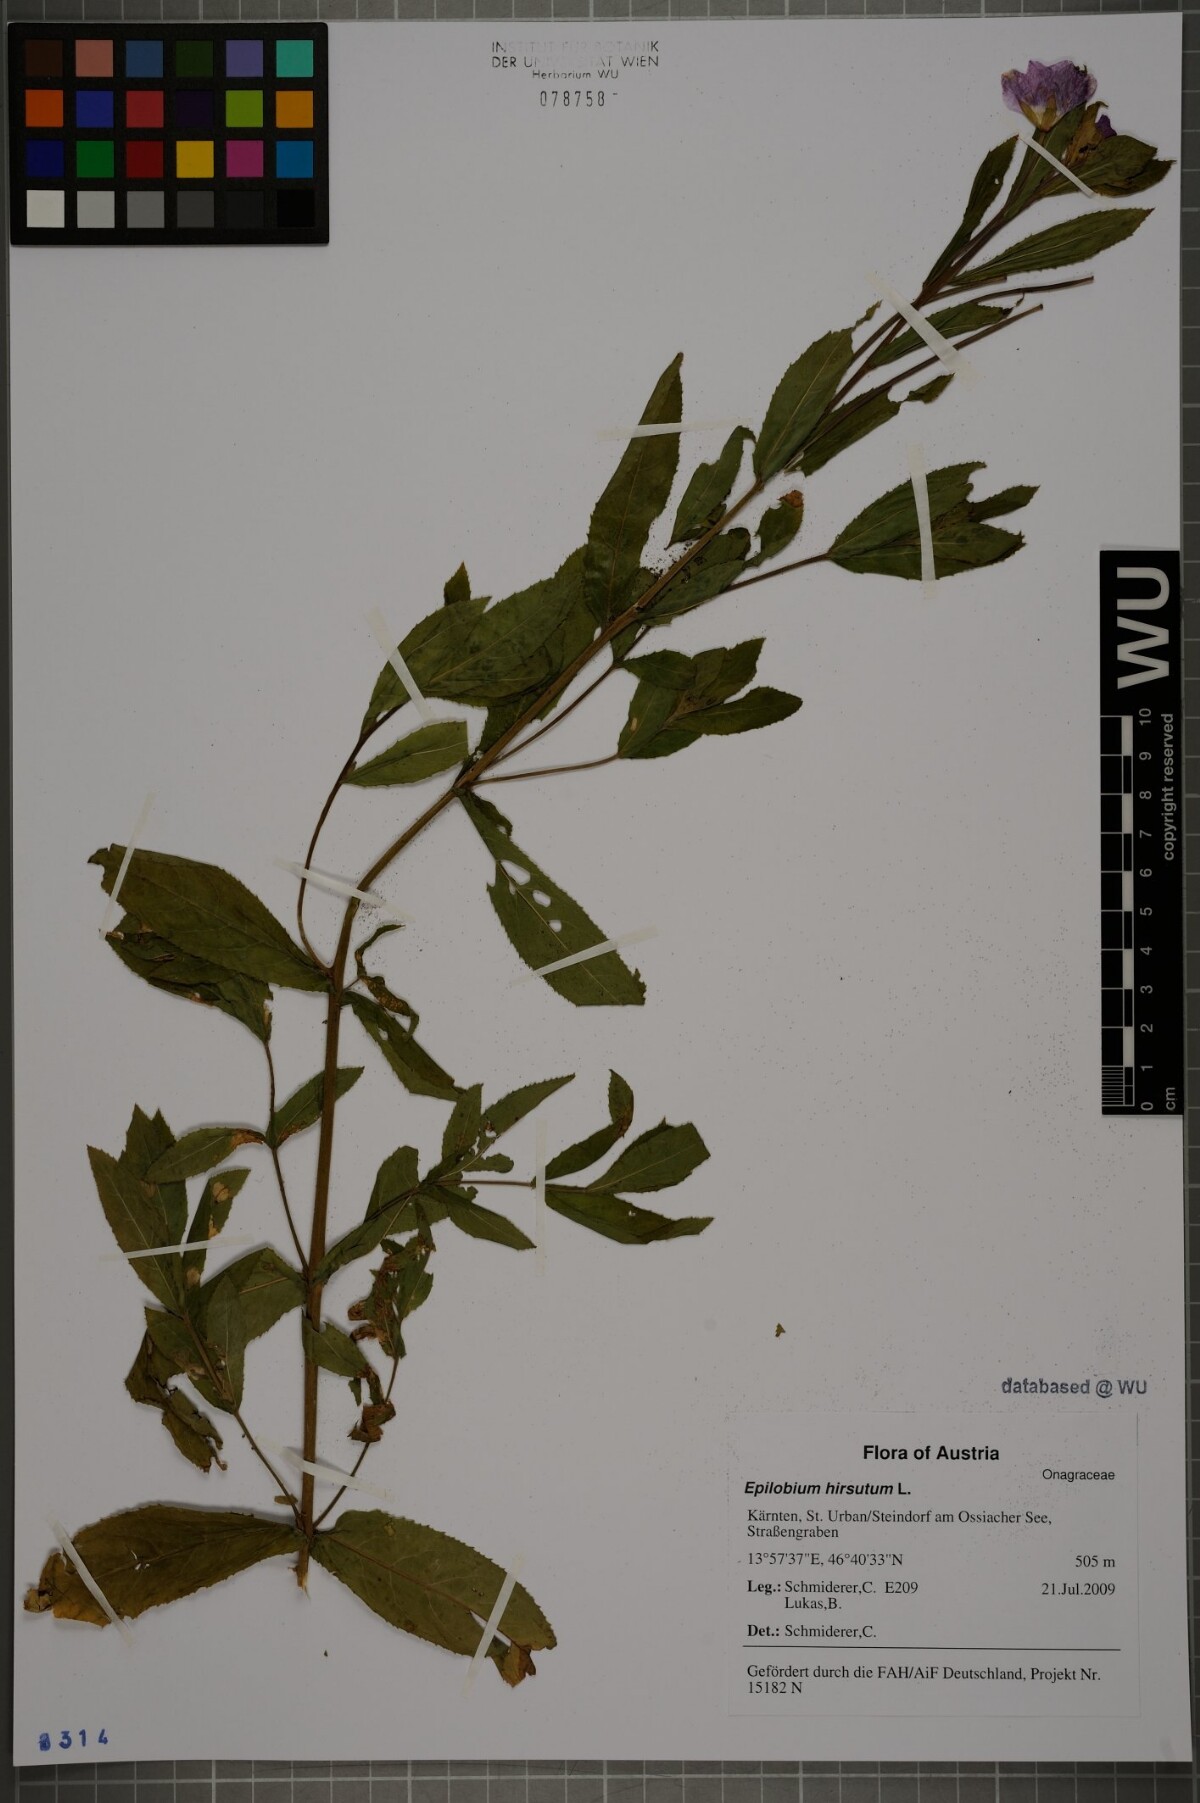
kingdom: Plantae
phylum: Tracheophyta
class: Magnoliopsida
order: Myrtales
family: Onagraceae
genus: Epilobium
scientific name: Epilobium hirsutum
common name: Great willowherb
